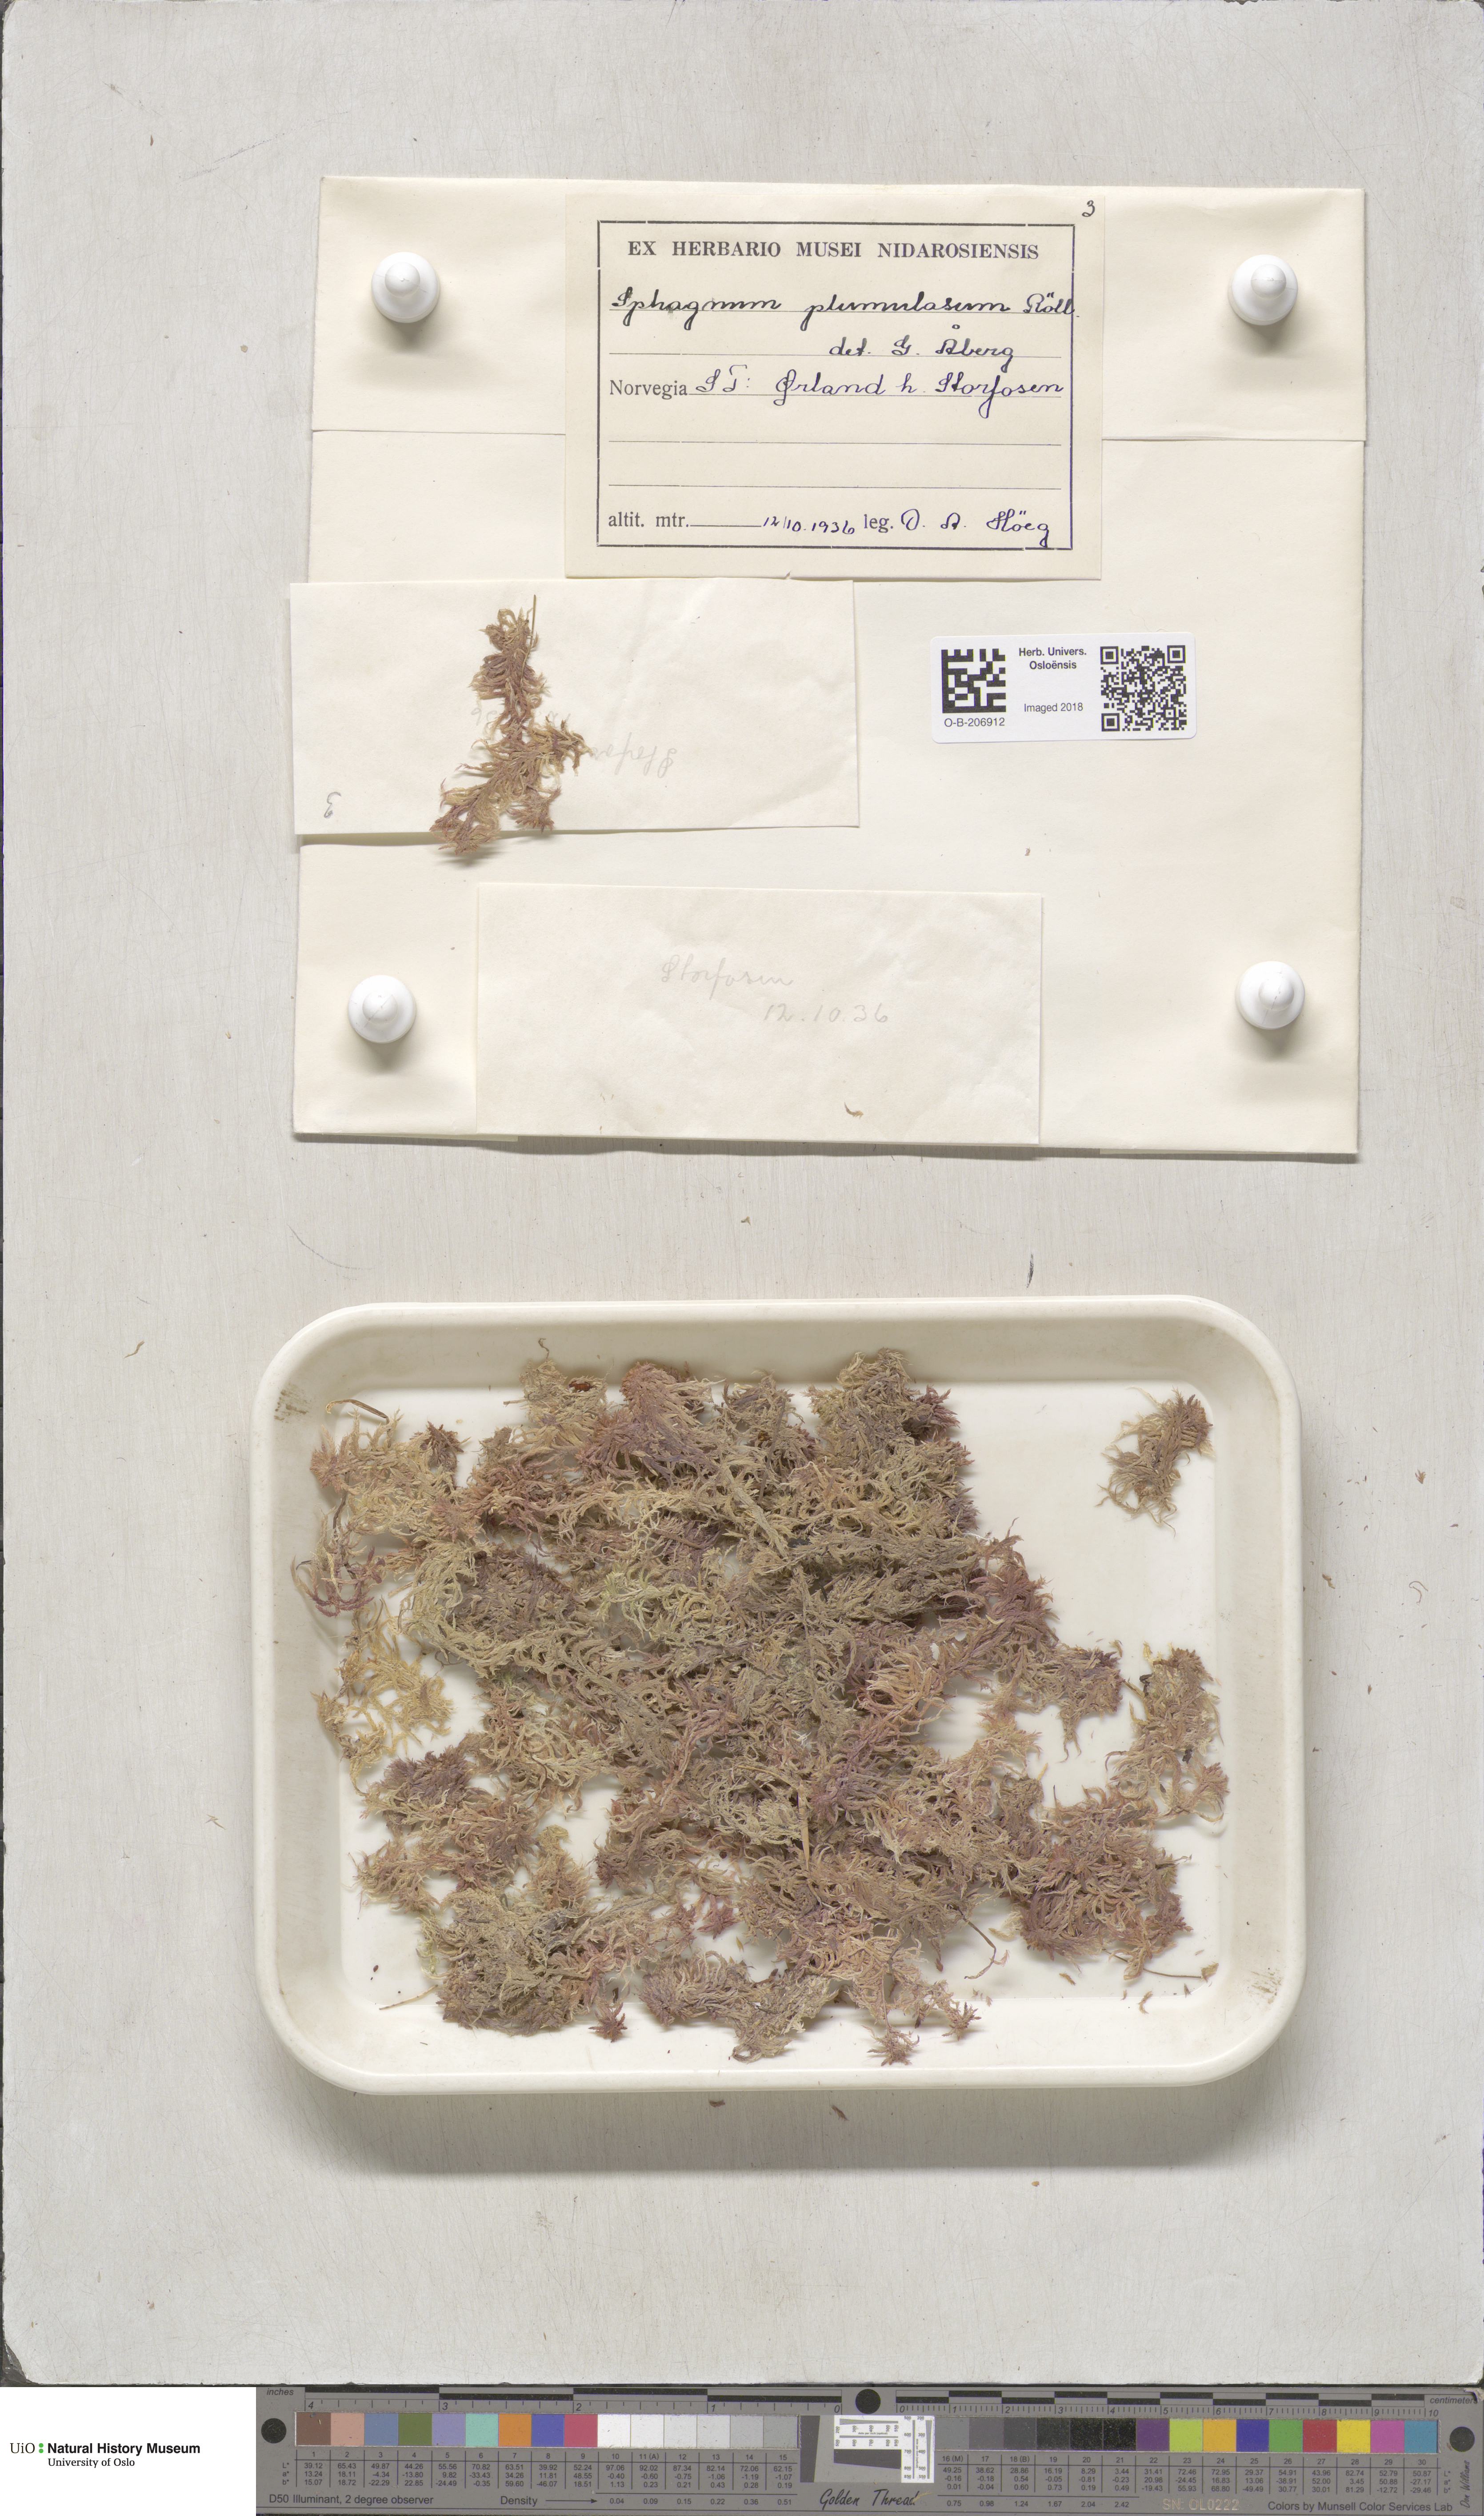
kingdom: Plantae
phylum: Bryophyta
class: Sphagnopsida
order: Sphagnales
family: Sphagnaceae
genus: Sphagnum
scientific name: Sphagnum subnitens
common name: Lustrous bog-moss
